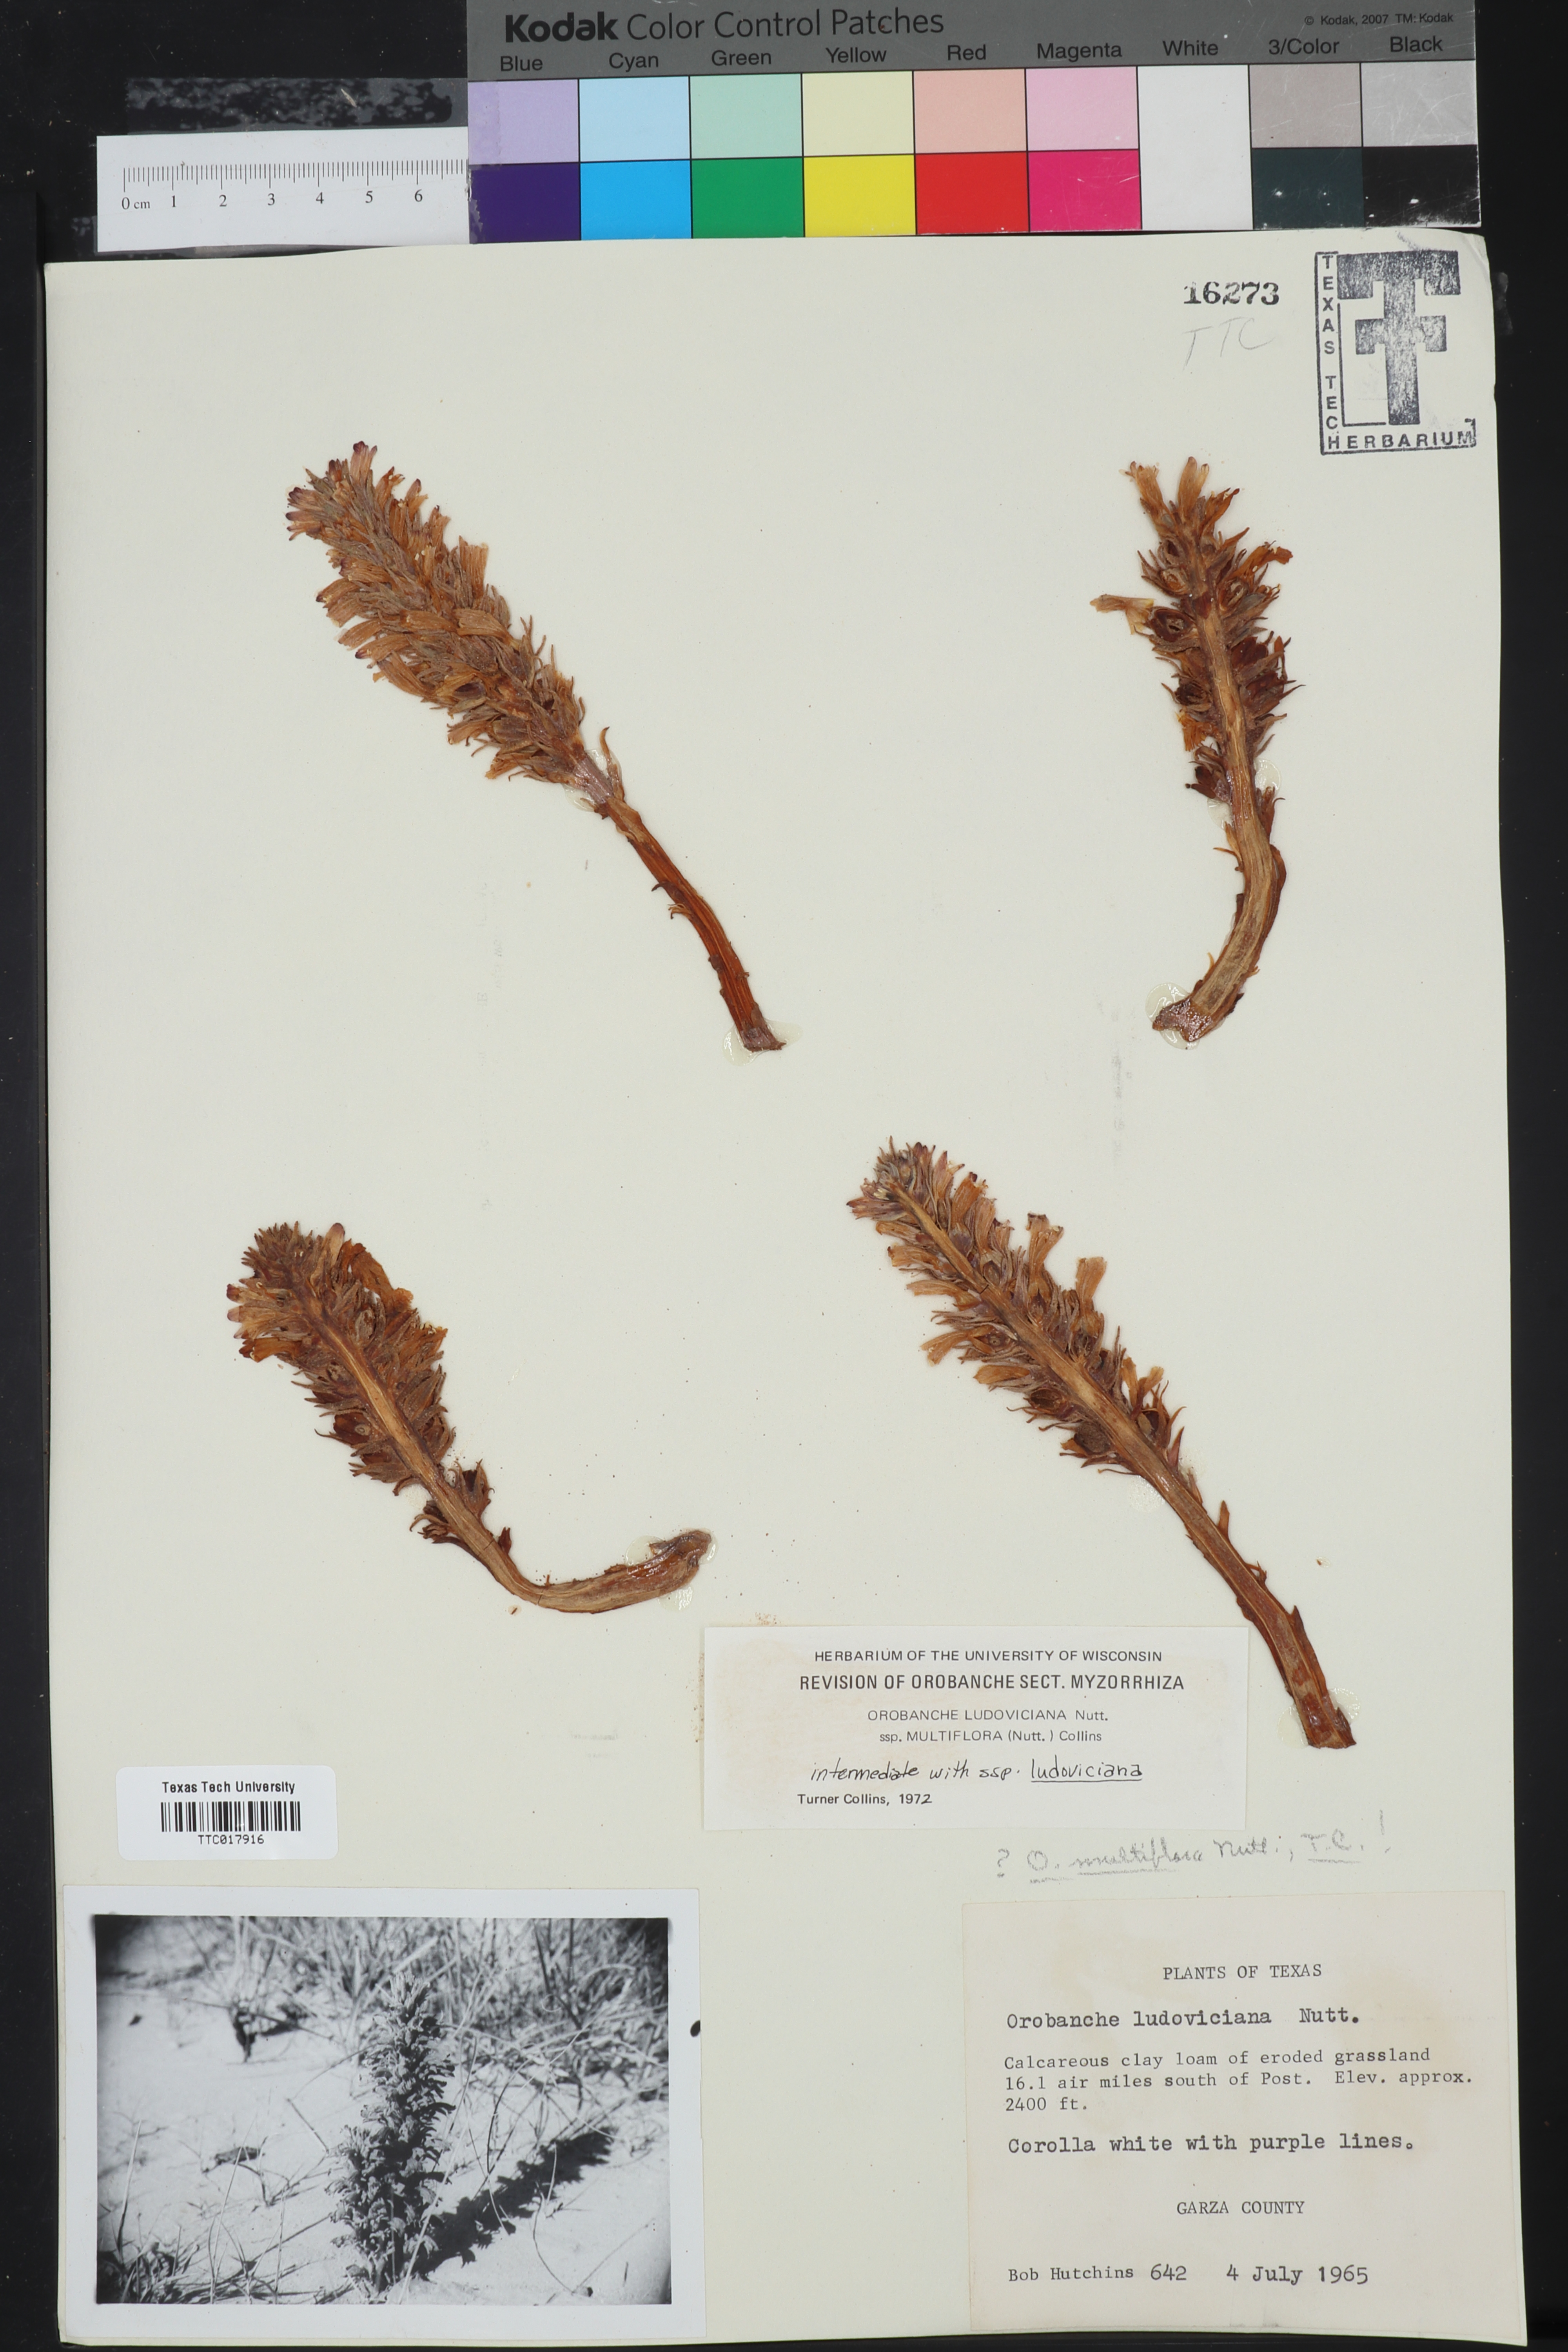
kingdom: Plantae
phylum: Tracheophyta
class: Magnoliopsida
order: Lamiales
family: Orobanchaceae
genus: Aphyllon
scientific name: Aphyllon multiflorum
